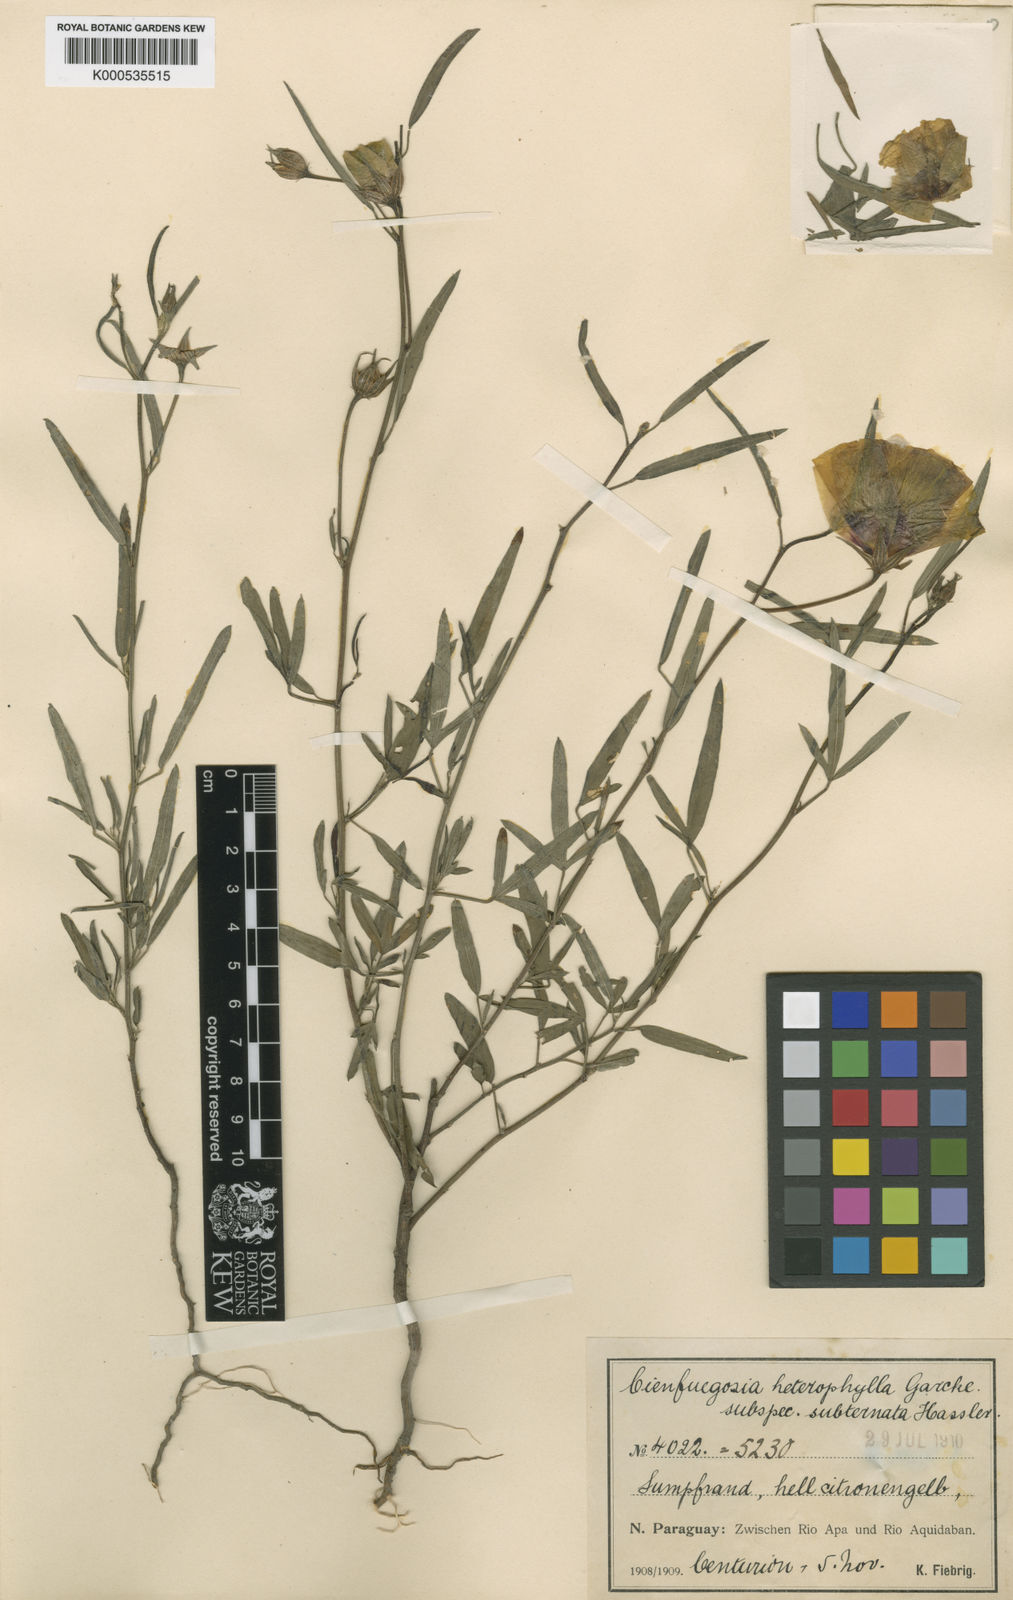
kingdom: Plantae
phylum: Tracheophyta
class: Magnoliopsida
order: Malvales
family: Malvaceae
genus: Cienfuegosia
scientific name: Cienfuegosia subternata
